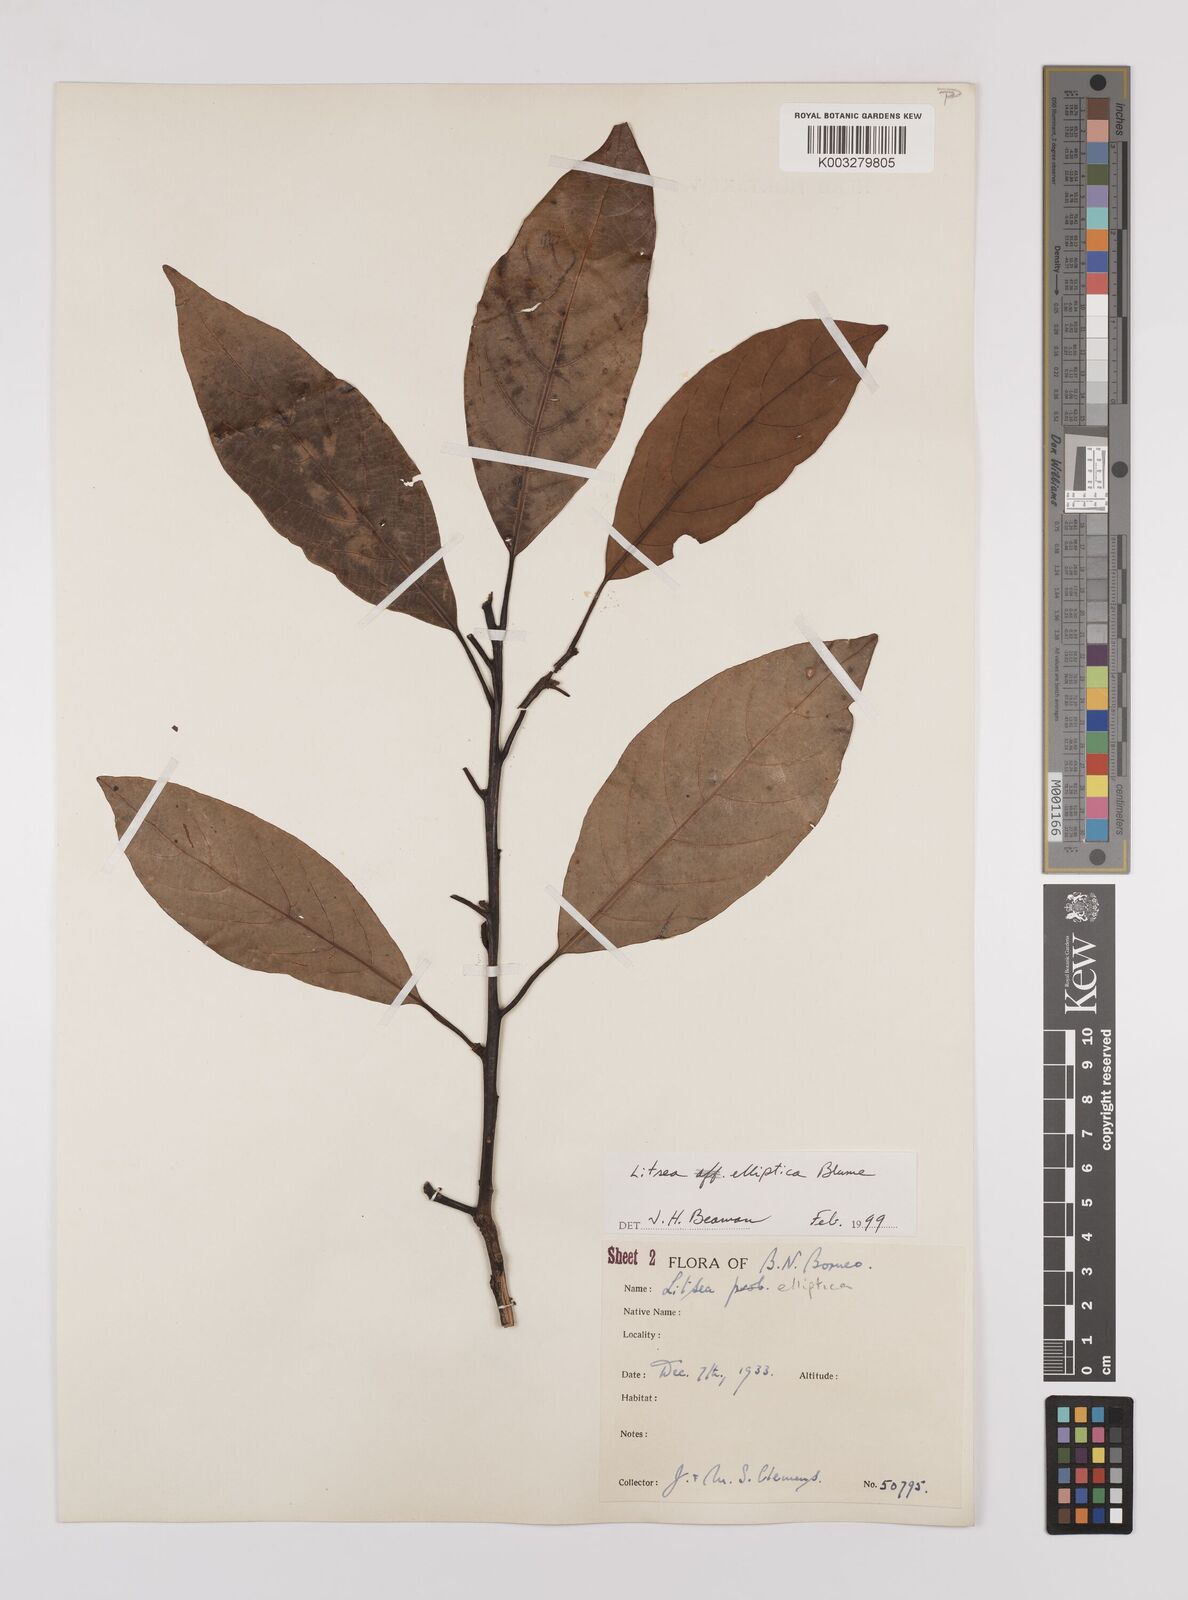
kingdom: Plantae
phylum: Tracheophyta
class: Magnoliopsida
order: Laurales
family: Lauraceae
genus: Litsea
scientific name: Litsea elliptica
